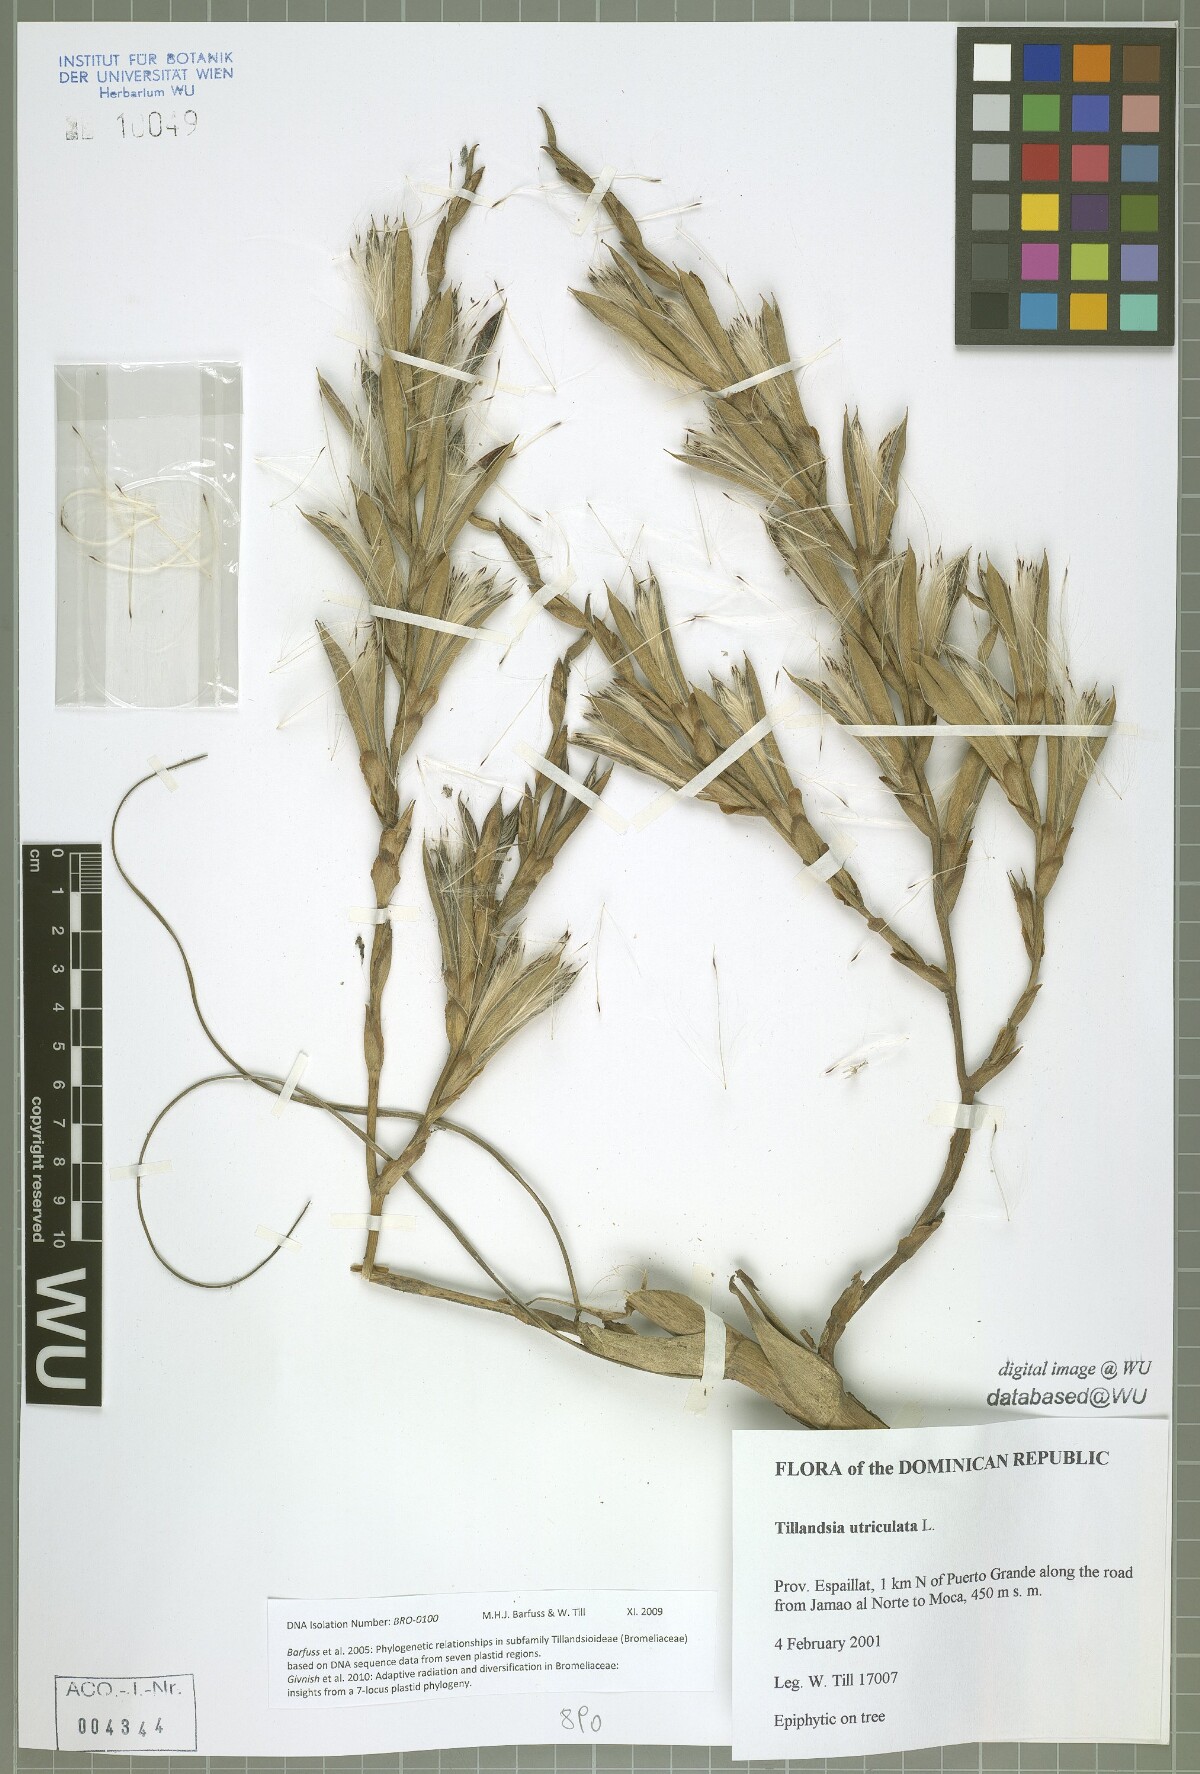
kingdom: Plantae
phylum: Tracheophyta
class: Liliopsida
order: Poales
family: Bromeliaceae
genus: Tillandsia
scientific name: Tillandsia utriculata
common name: Wild pine
